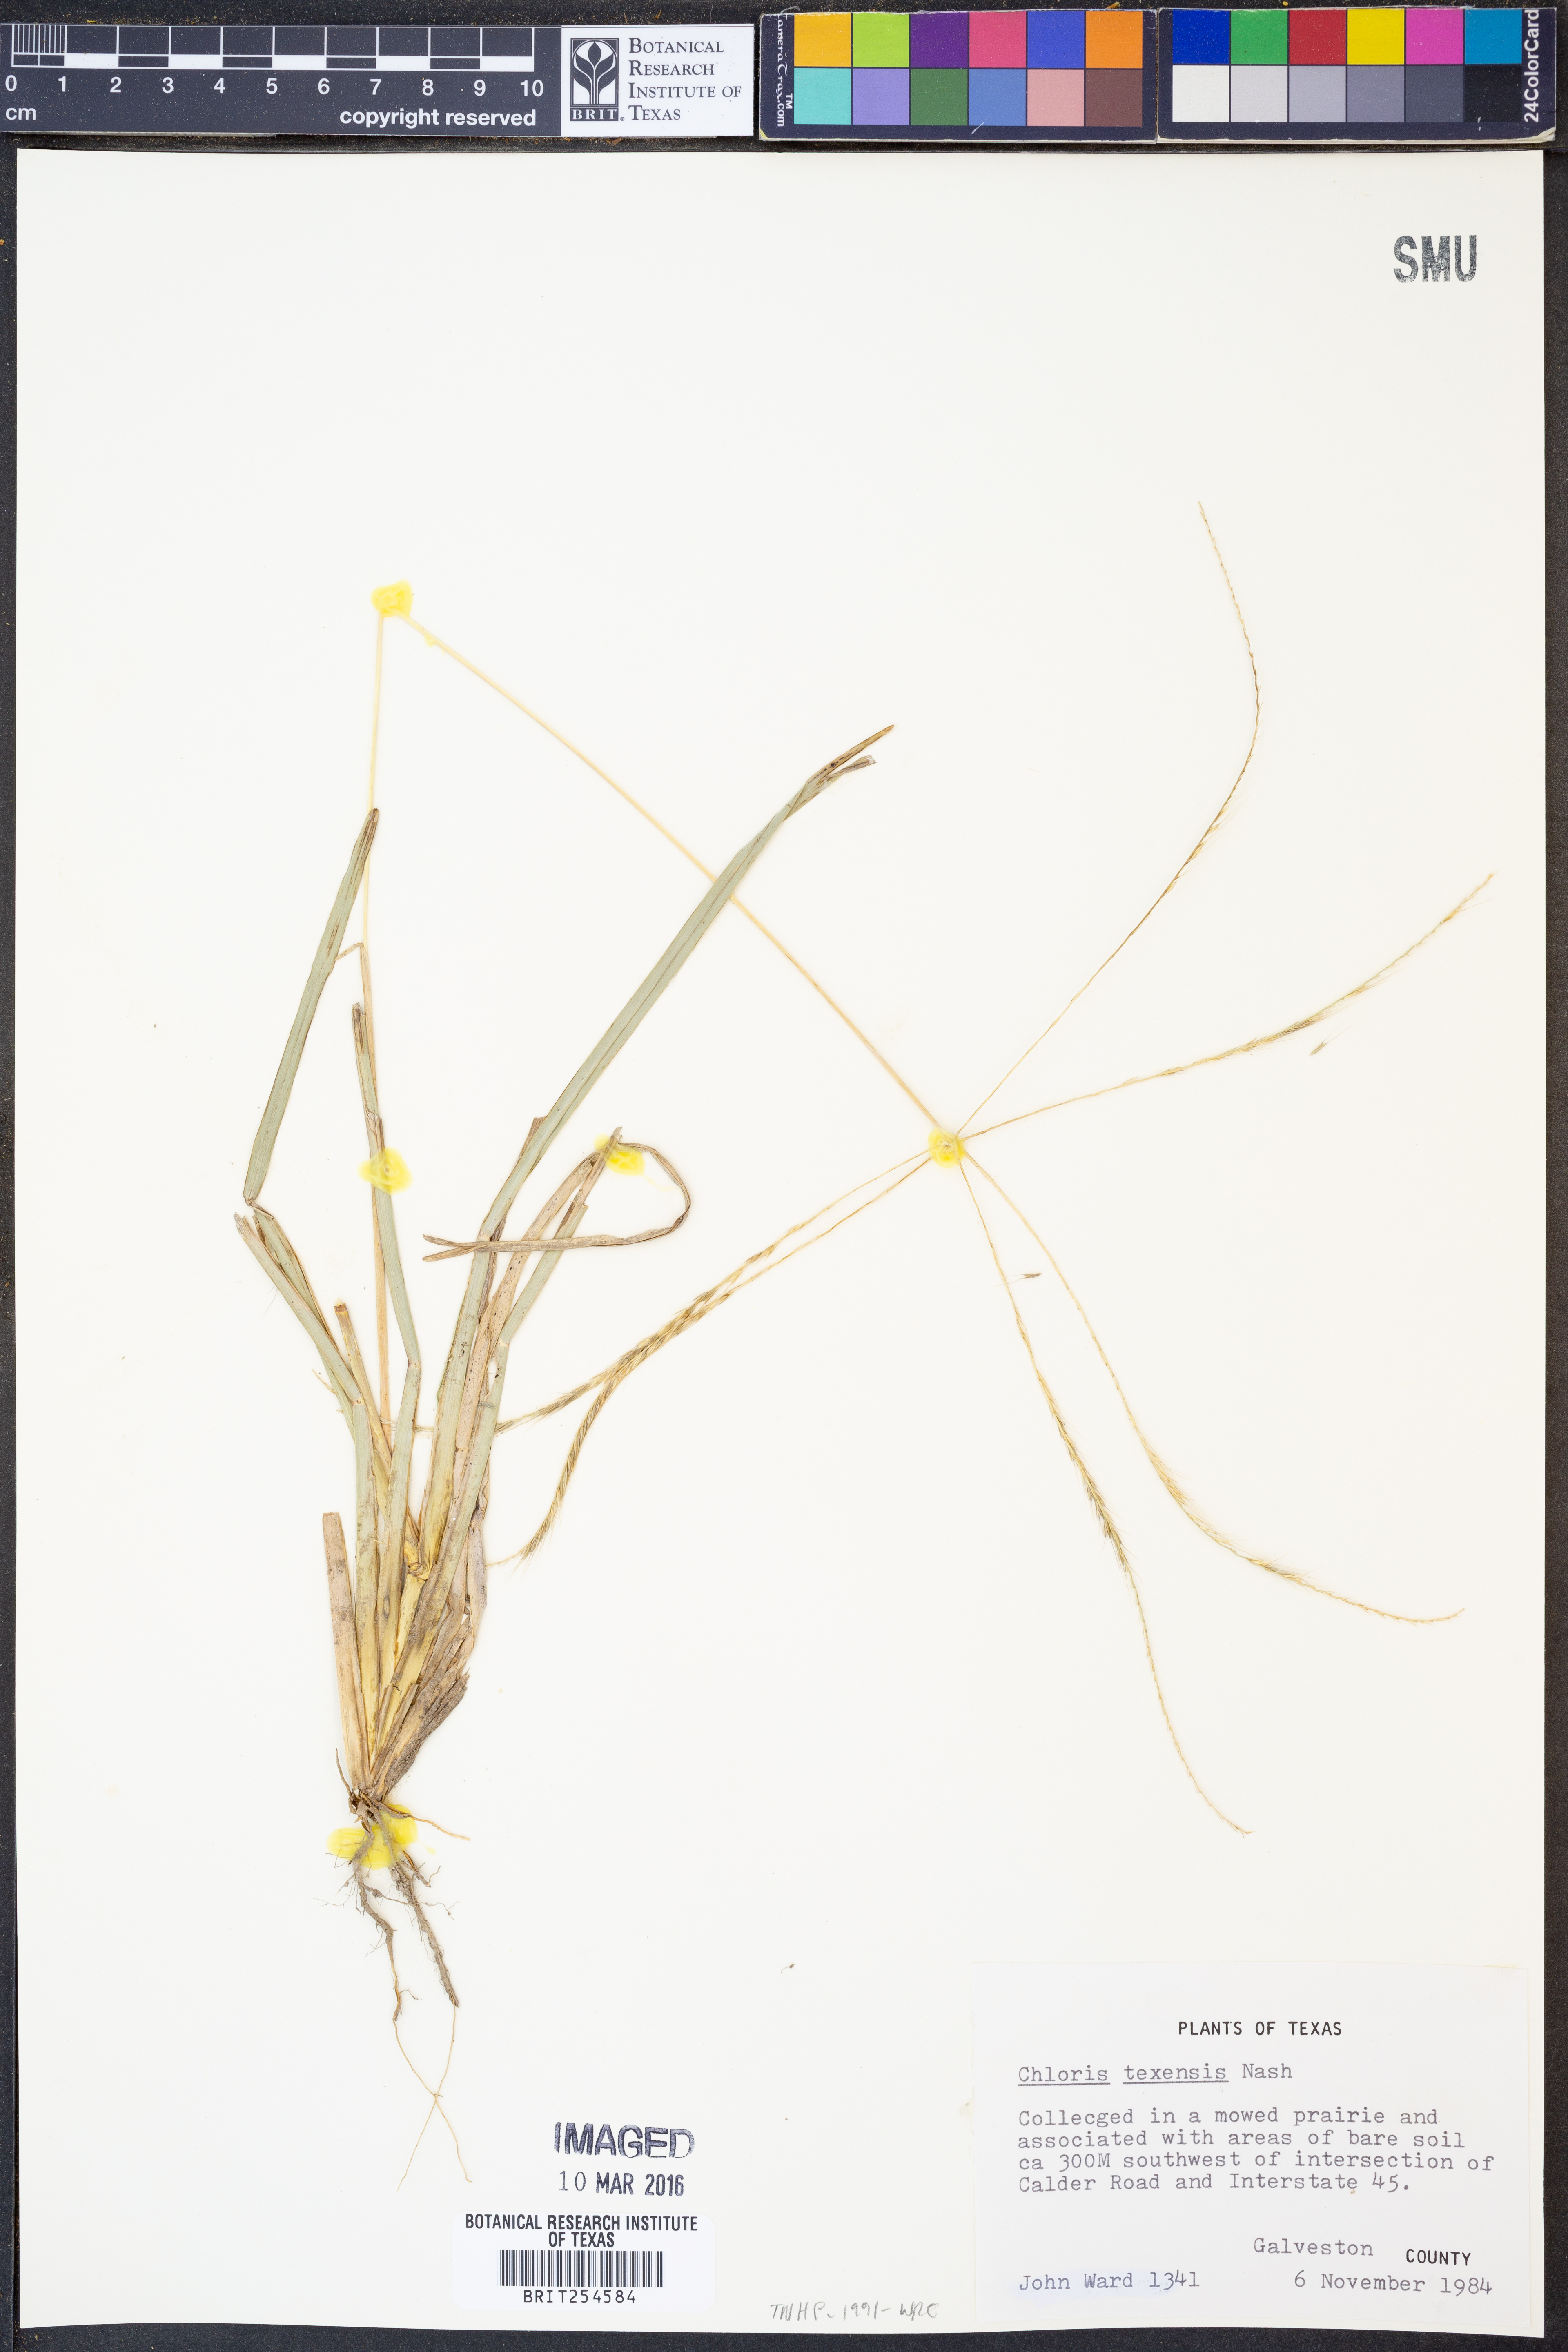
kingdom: Plantae
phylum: Tracheophyta
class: Liliopsida
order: Poales
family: Poaceae
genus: Chloris
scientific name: Chloris texensis
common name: Texas windmill grass
